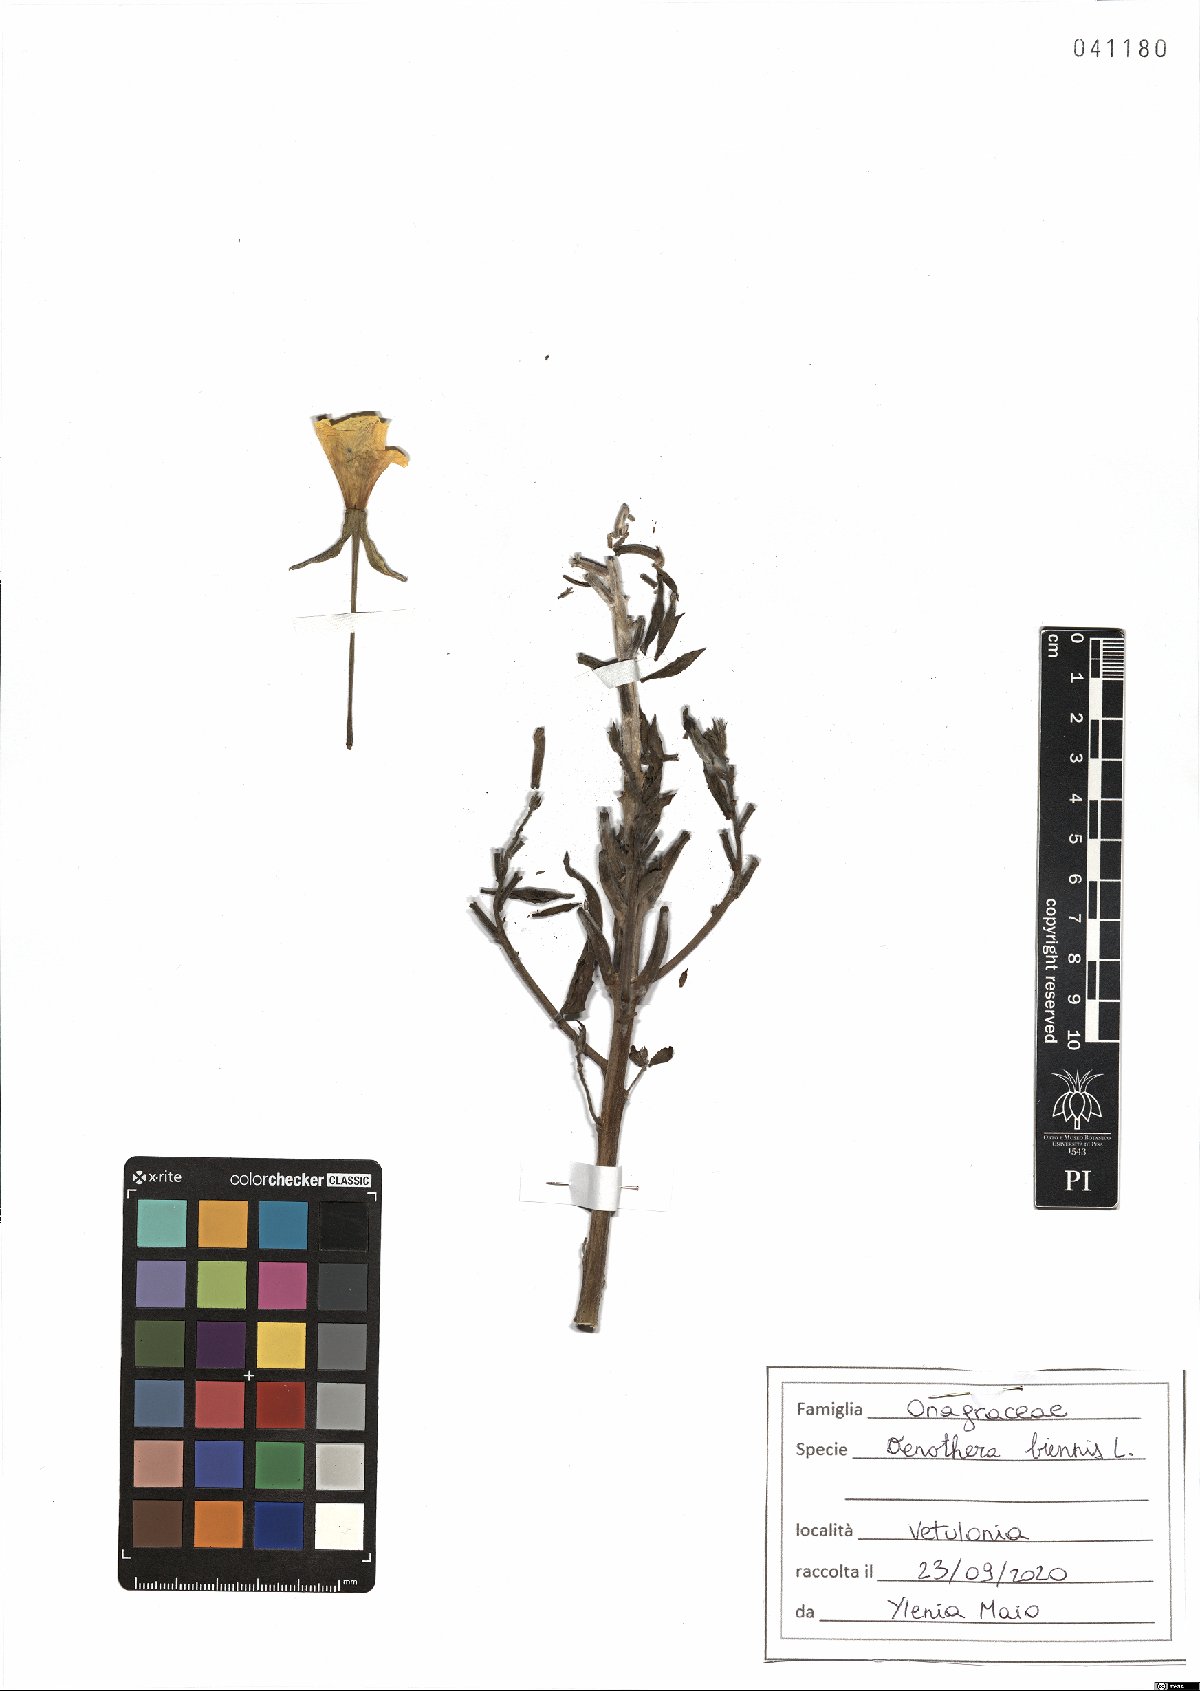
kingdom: Plantae
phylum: Tracheophyta
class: Magnoliopsida
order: Myrtales
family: Onagraceae
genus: Oenothera
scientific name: Oenothera biennis
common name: Common evening-primrose
